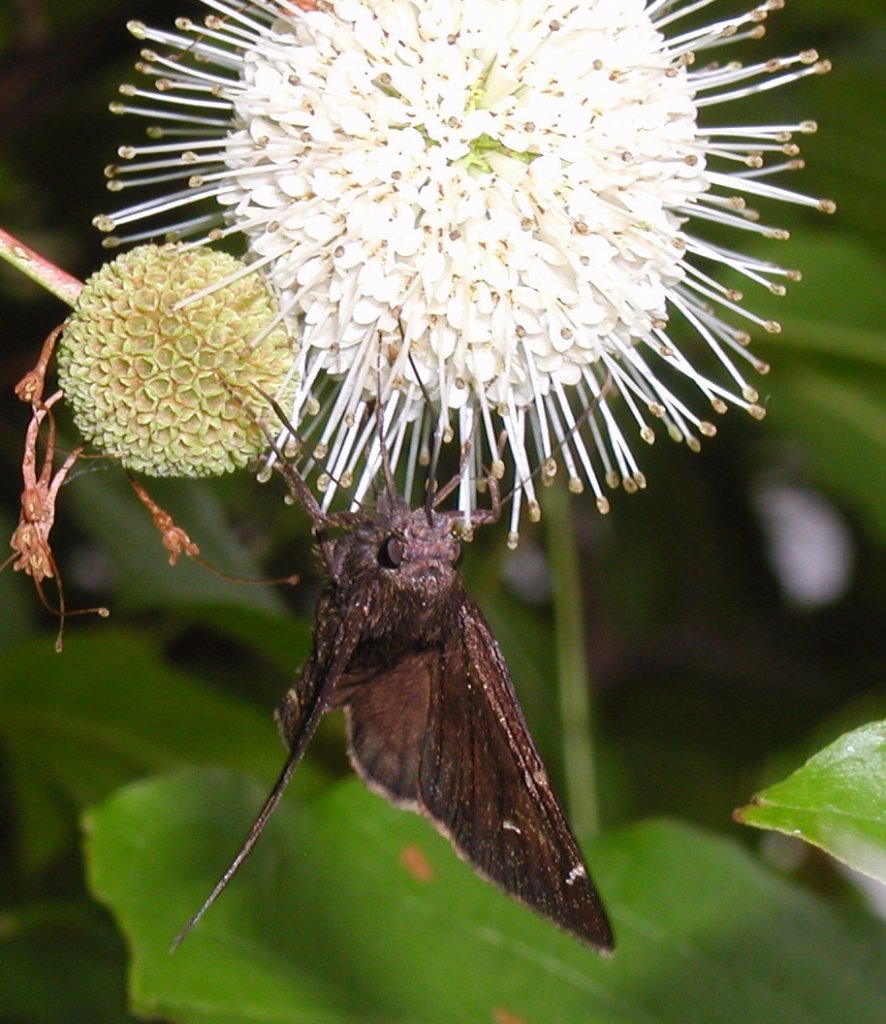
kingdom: Animalia
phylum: Arthropoda
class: Insecta
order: Lepidoptera
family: Hesperiidae
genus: Thorybes
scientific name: Thorybes mexicana
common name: Confused Cloudywing
